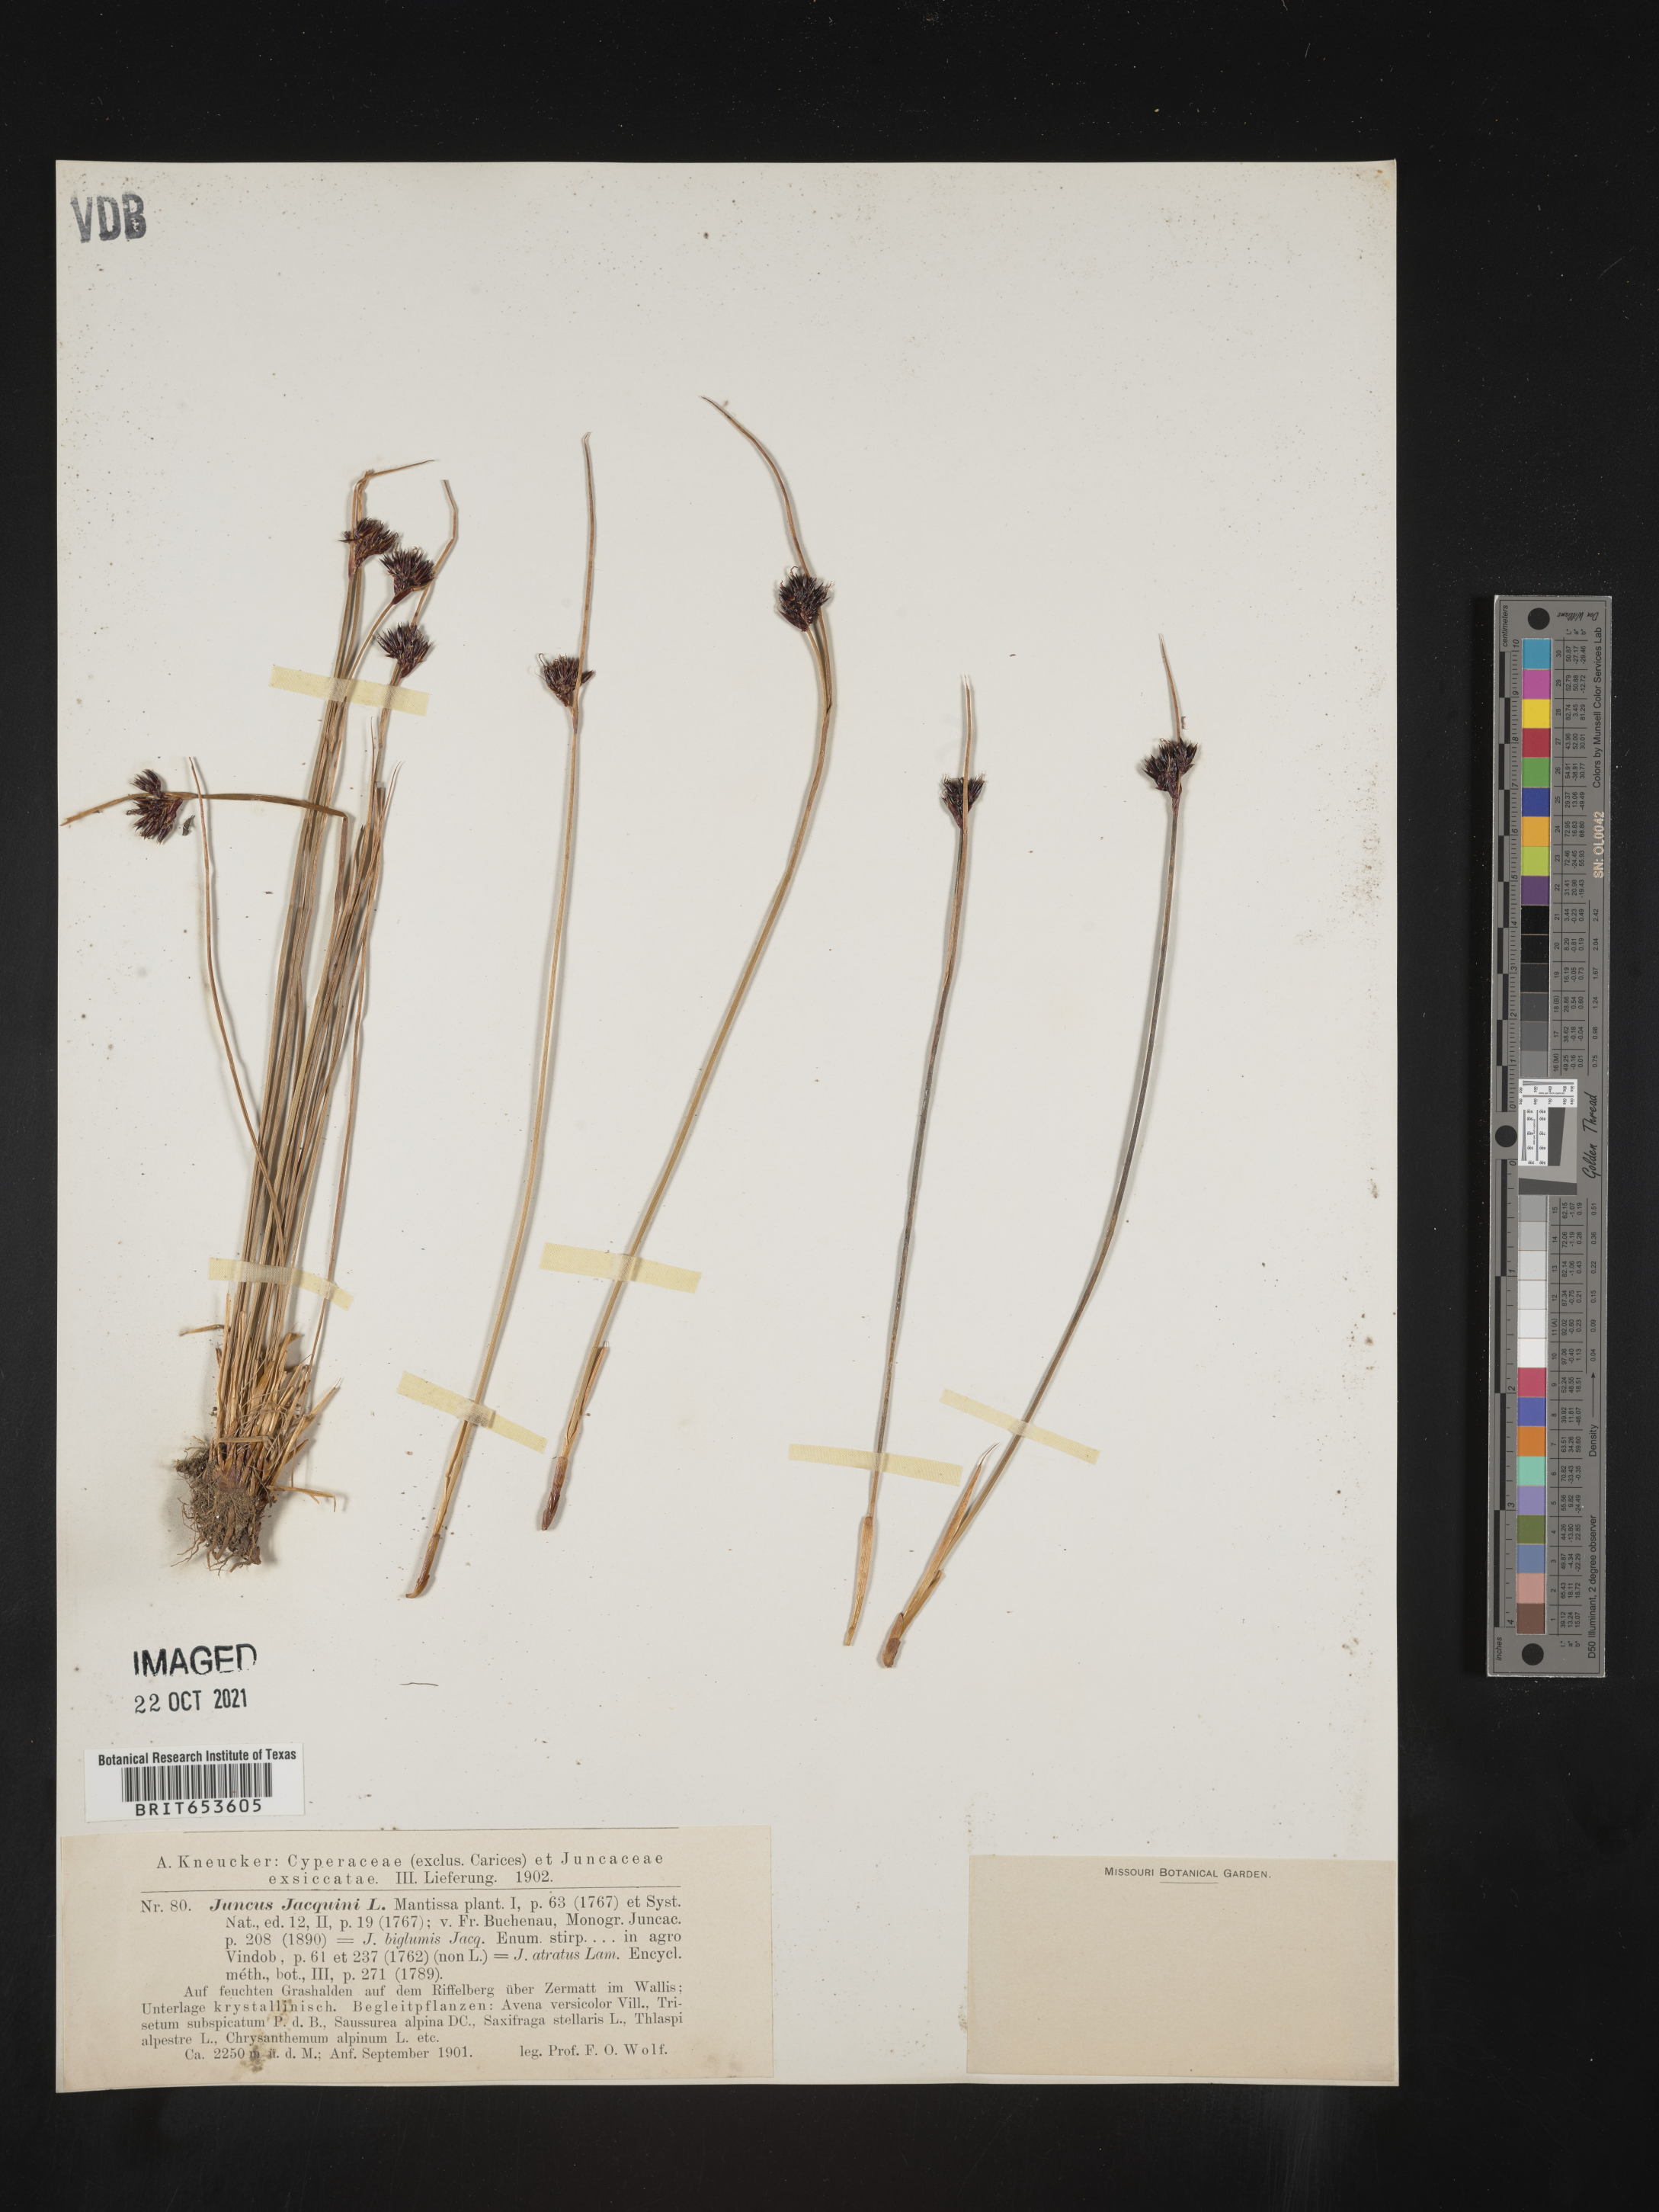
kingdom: Plantae
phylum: Tracheophyta
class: Liliopsida
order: Poales
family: Juncaceae
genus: Juncus
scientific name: Juncus
